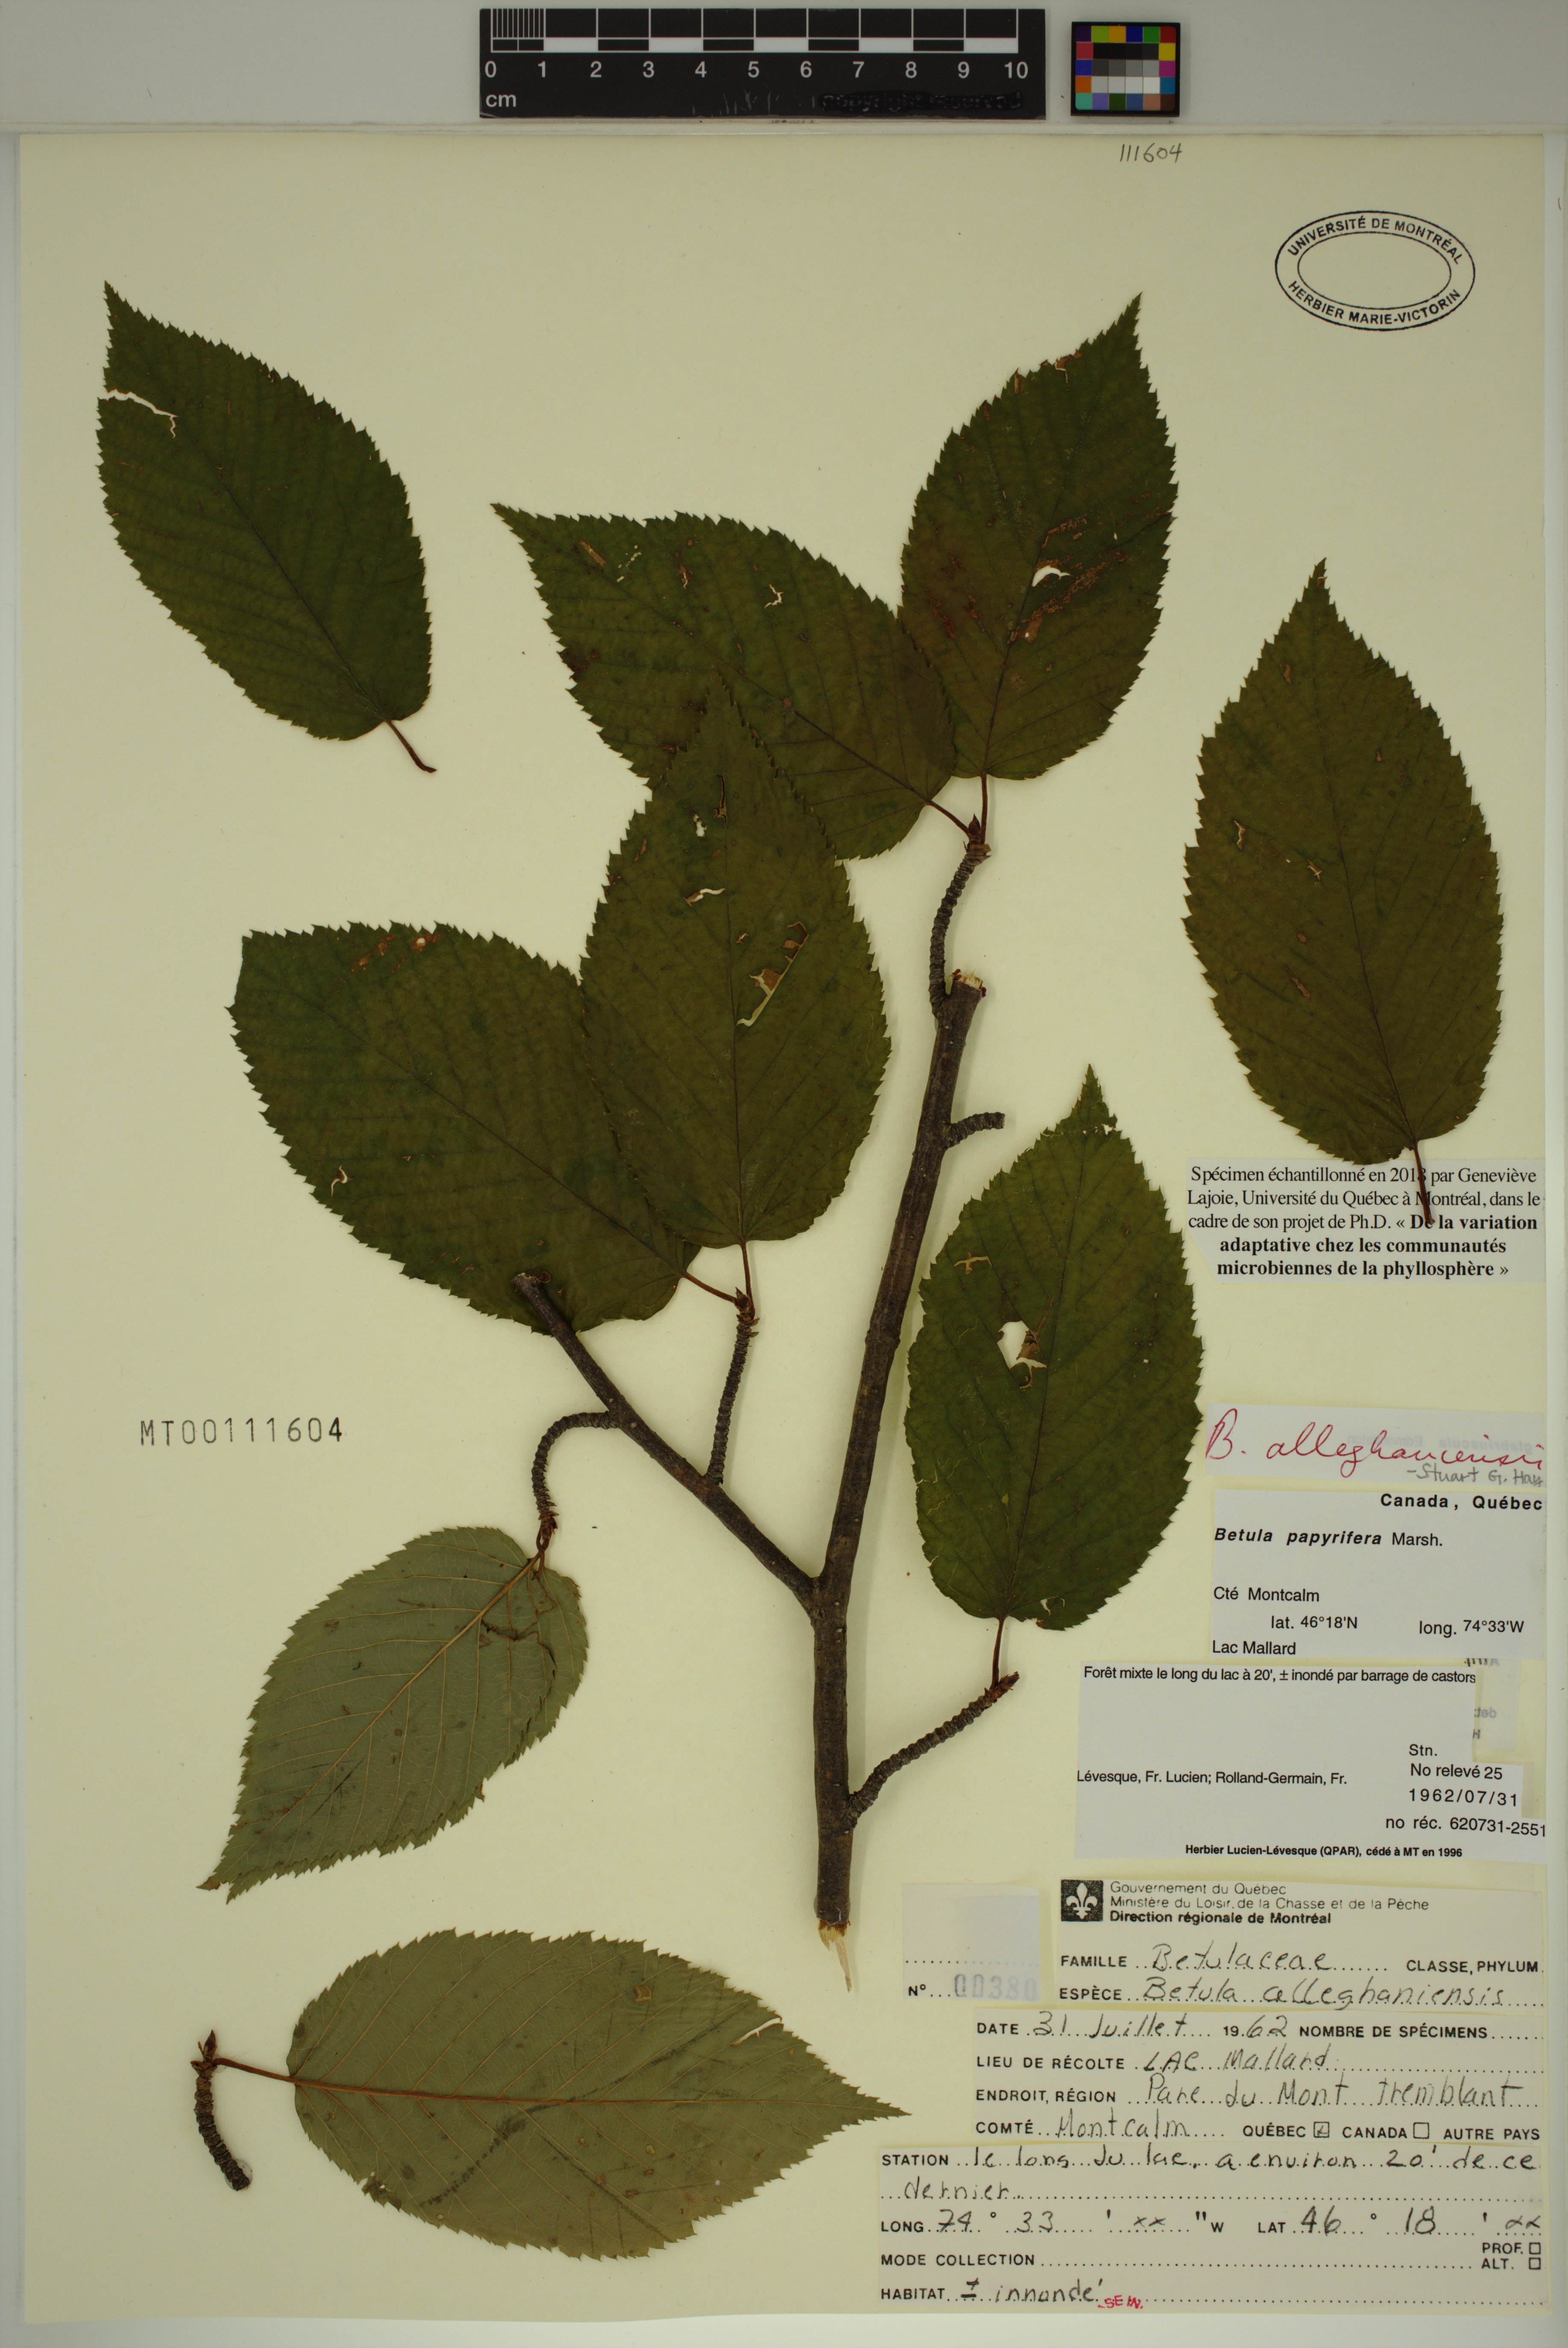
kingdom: Plantae
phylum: Tracheophyta
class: Magnoliopsida
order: Fagales
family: Betulaceae
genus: Betula
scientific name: Betula alleghaniensis
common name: Yellow birch
